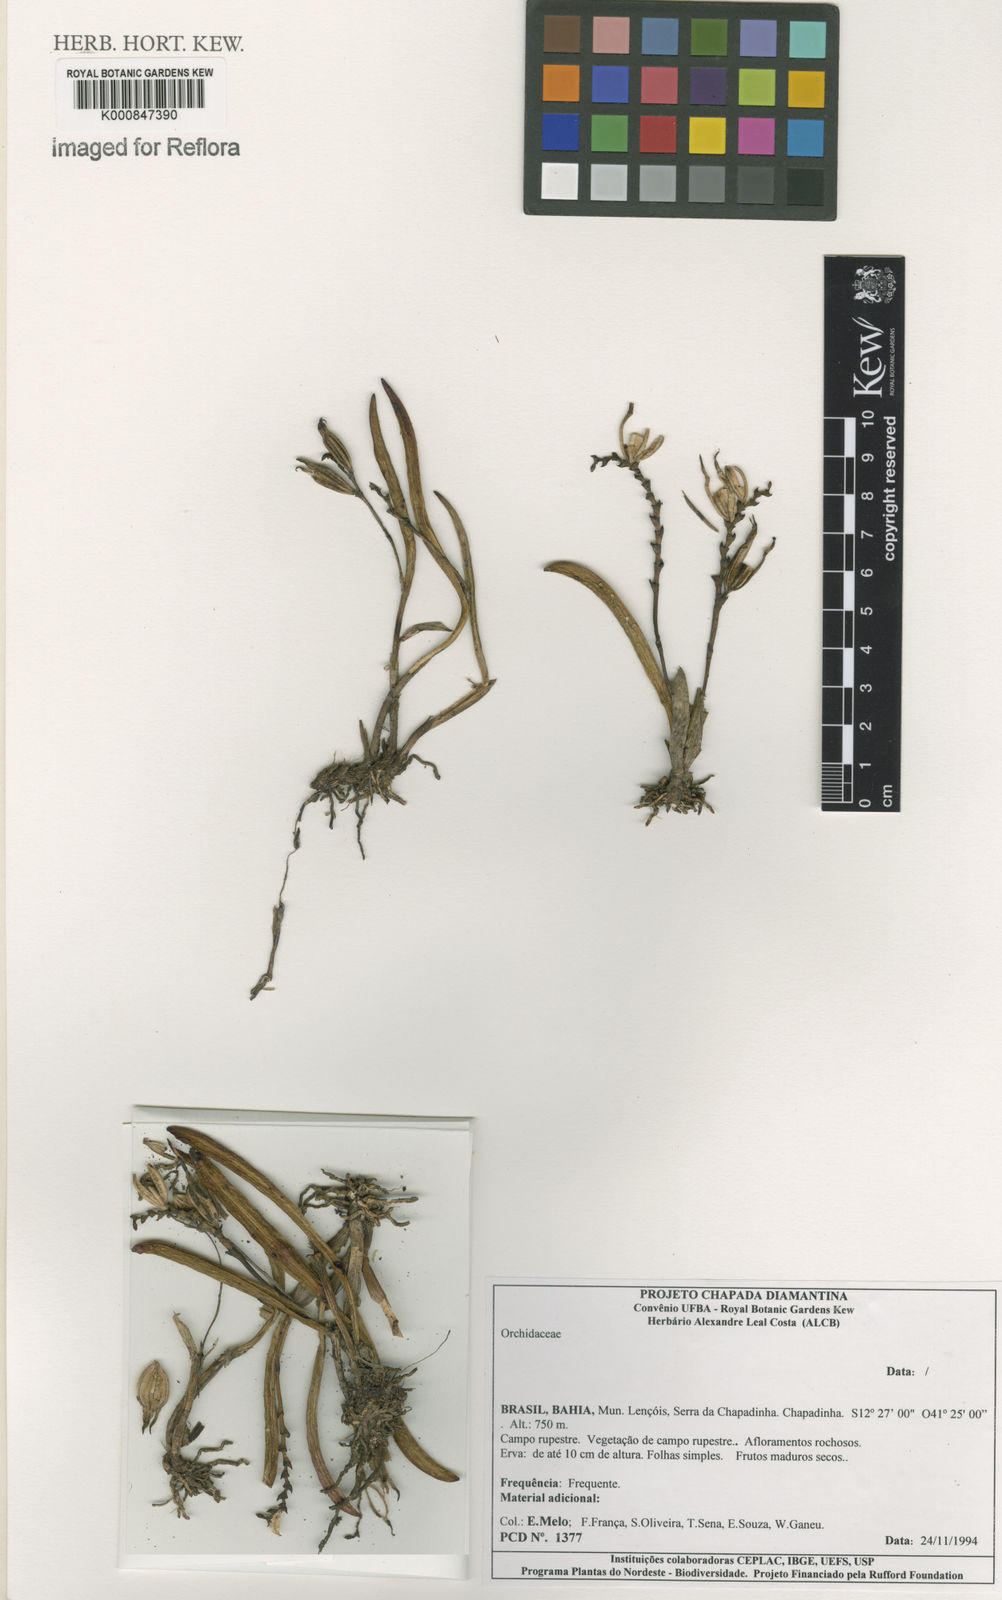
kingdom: Plantae
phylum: Tracheophyta
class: Liliopsida
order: Asparagales
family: Orchidaceae
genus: Acianthera
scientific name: Acianthera
